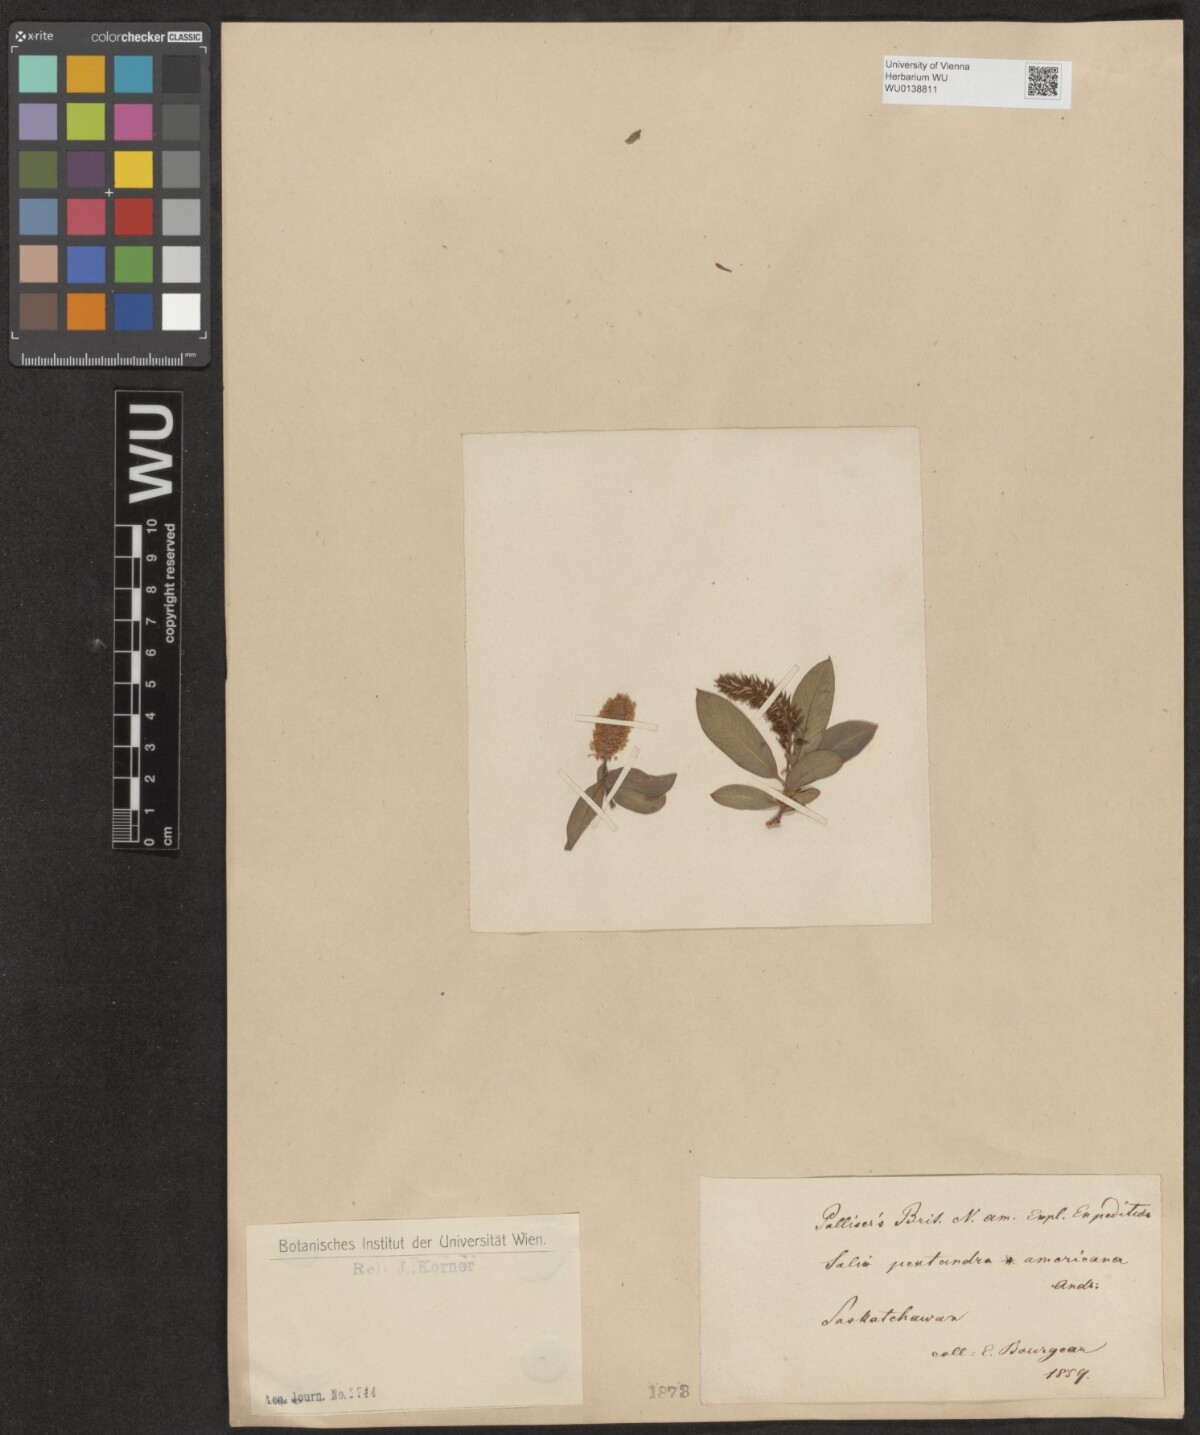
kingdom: Plantae
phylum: Tracheophyta
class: Magnoliopsida
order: Malpighiales
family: Salicaceae
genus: Salix
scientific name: Salix pentandra
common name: Bay willow
